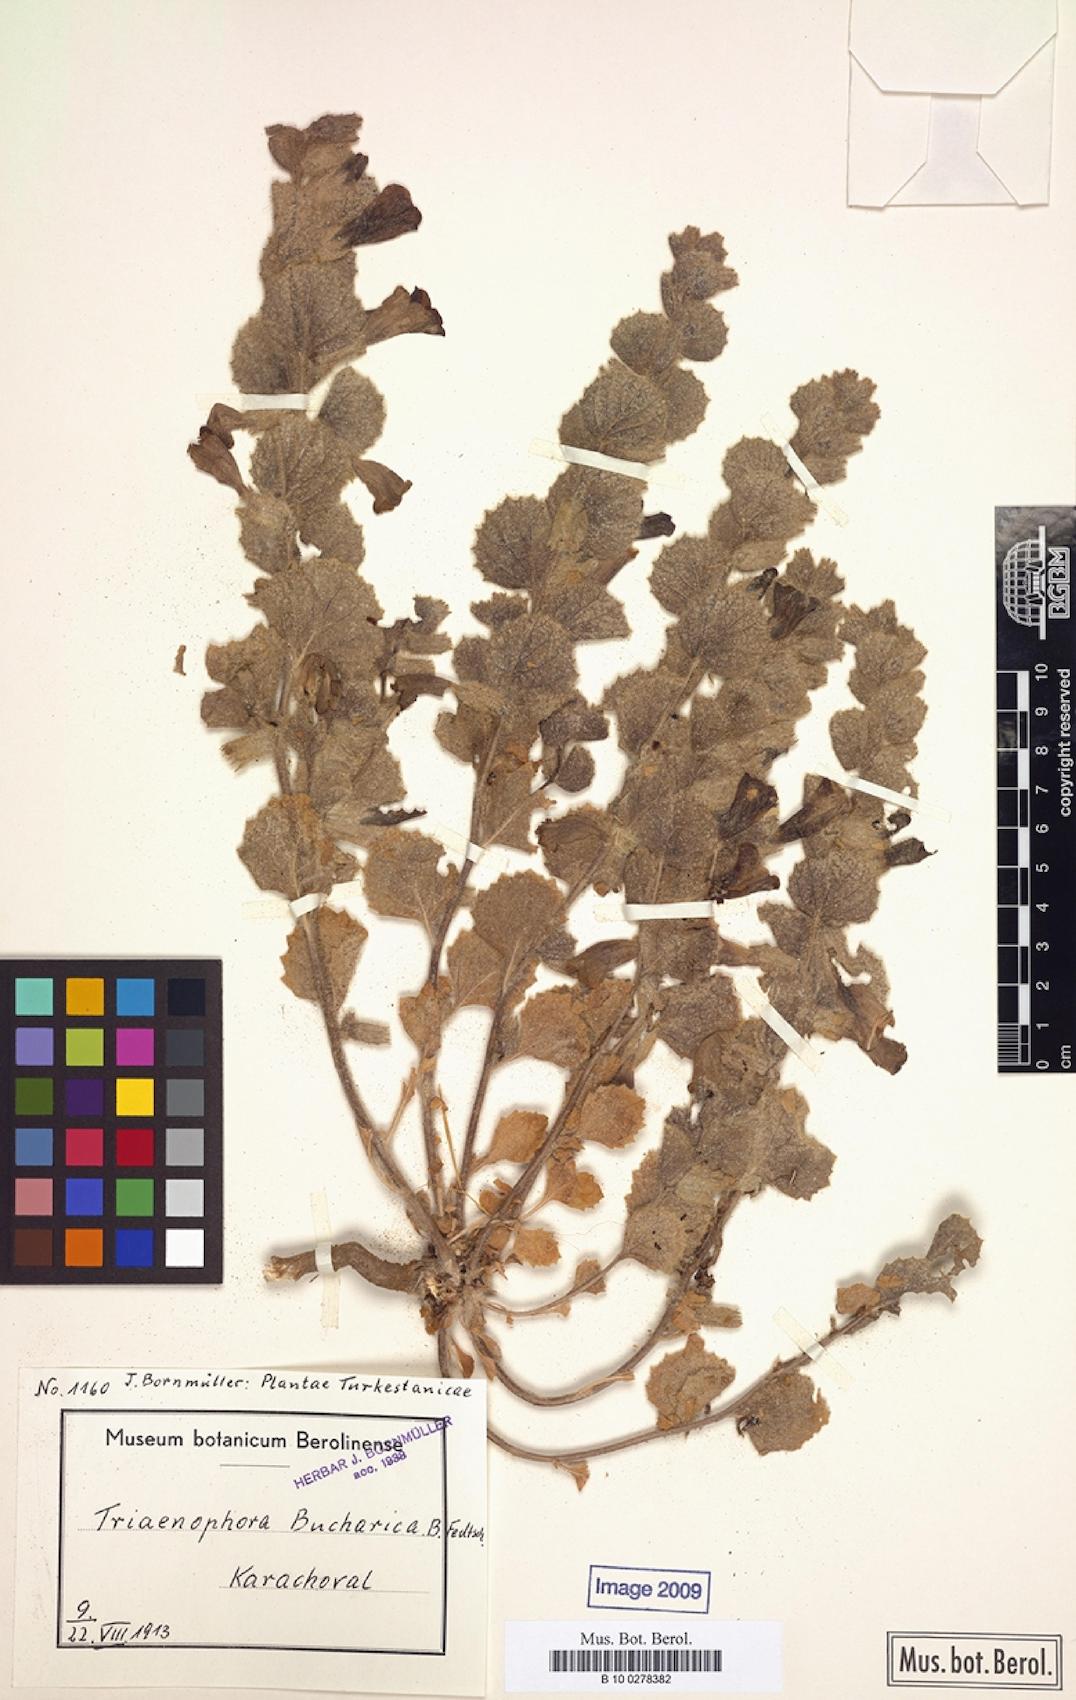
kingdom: Plantae
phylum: Tracheophyta
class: Magnoliopsida
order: Lamiales
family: Rehmanniaceae
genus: Triaenophora
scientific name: Triaenophora bucharica
